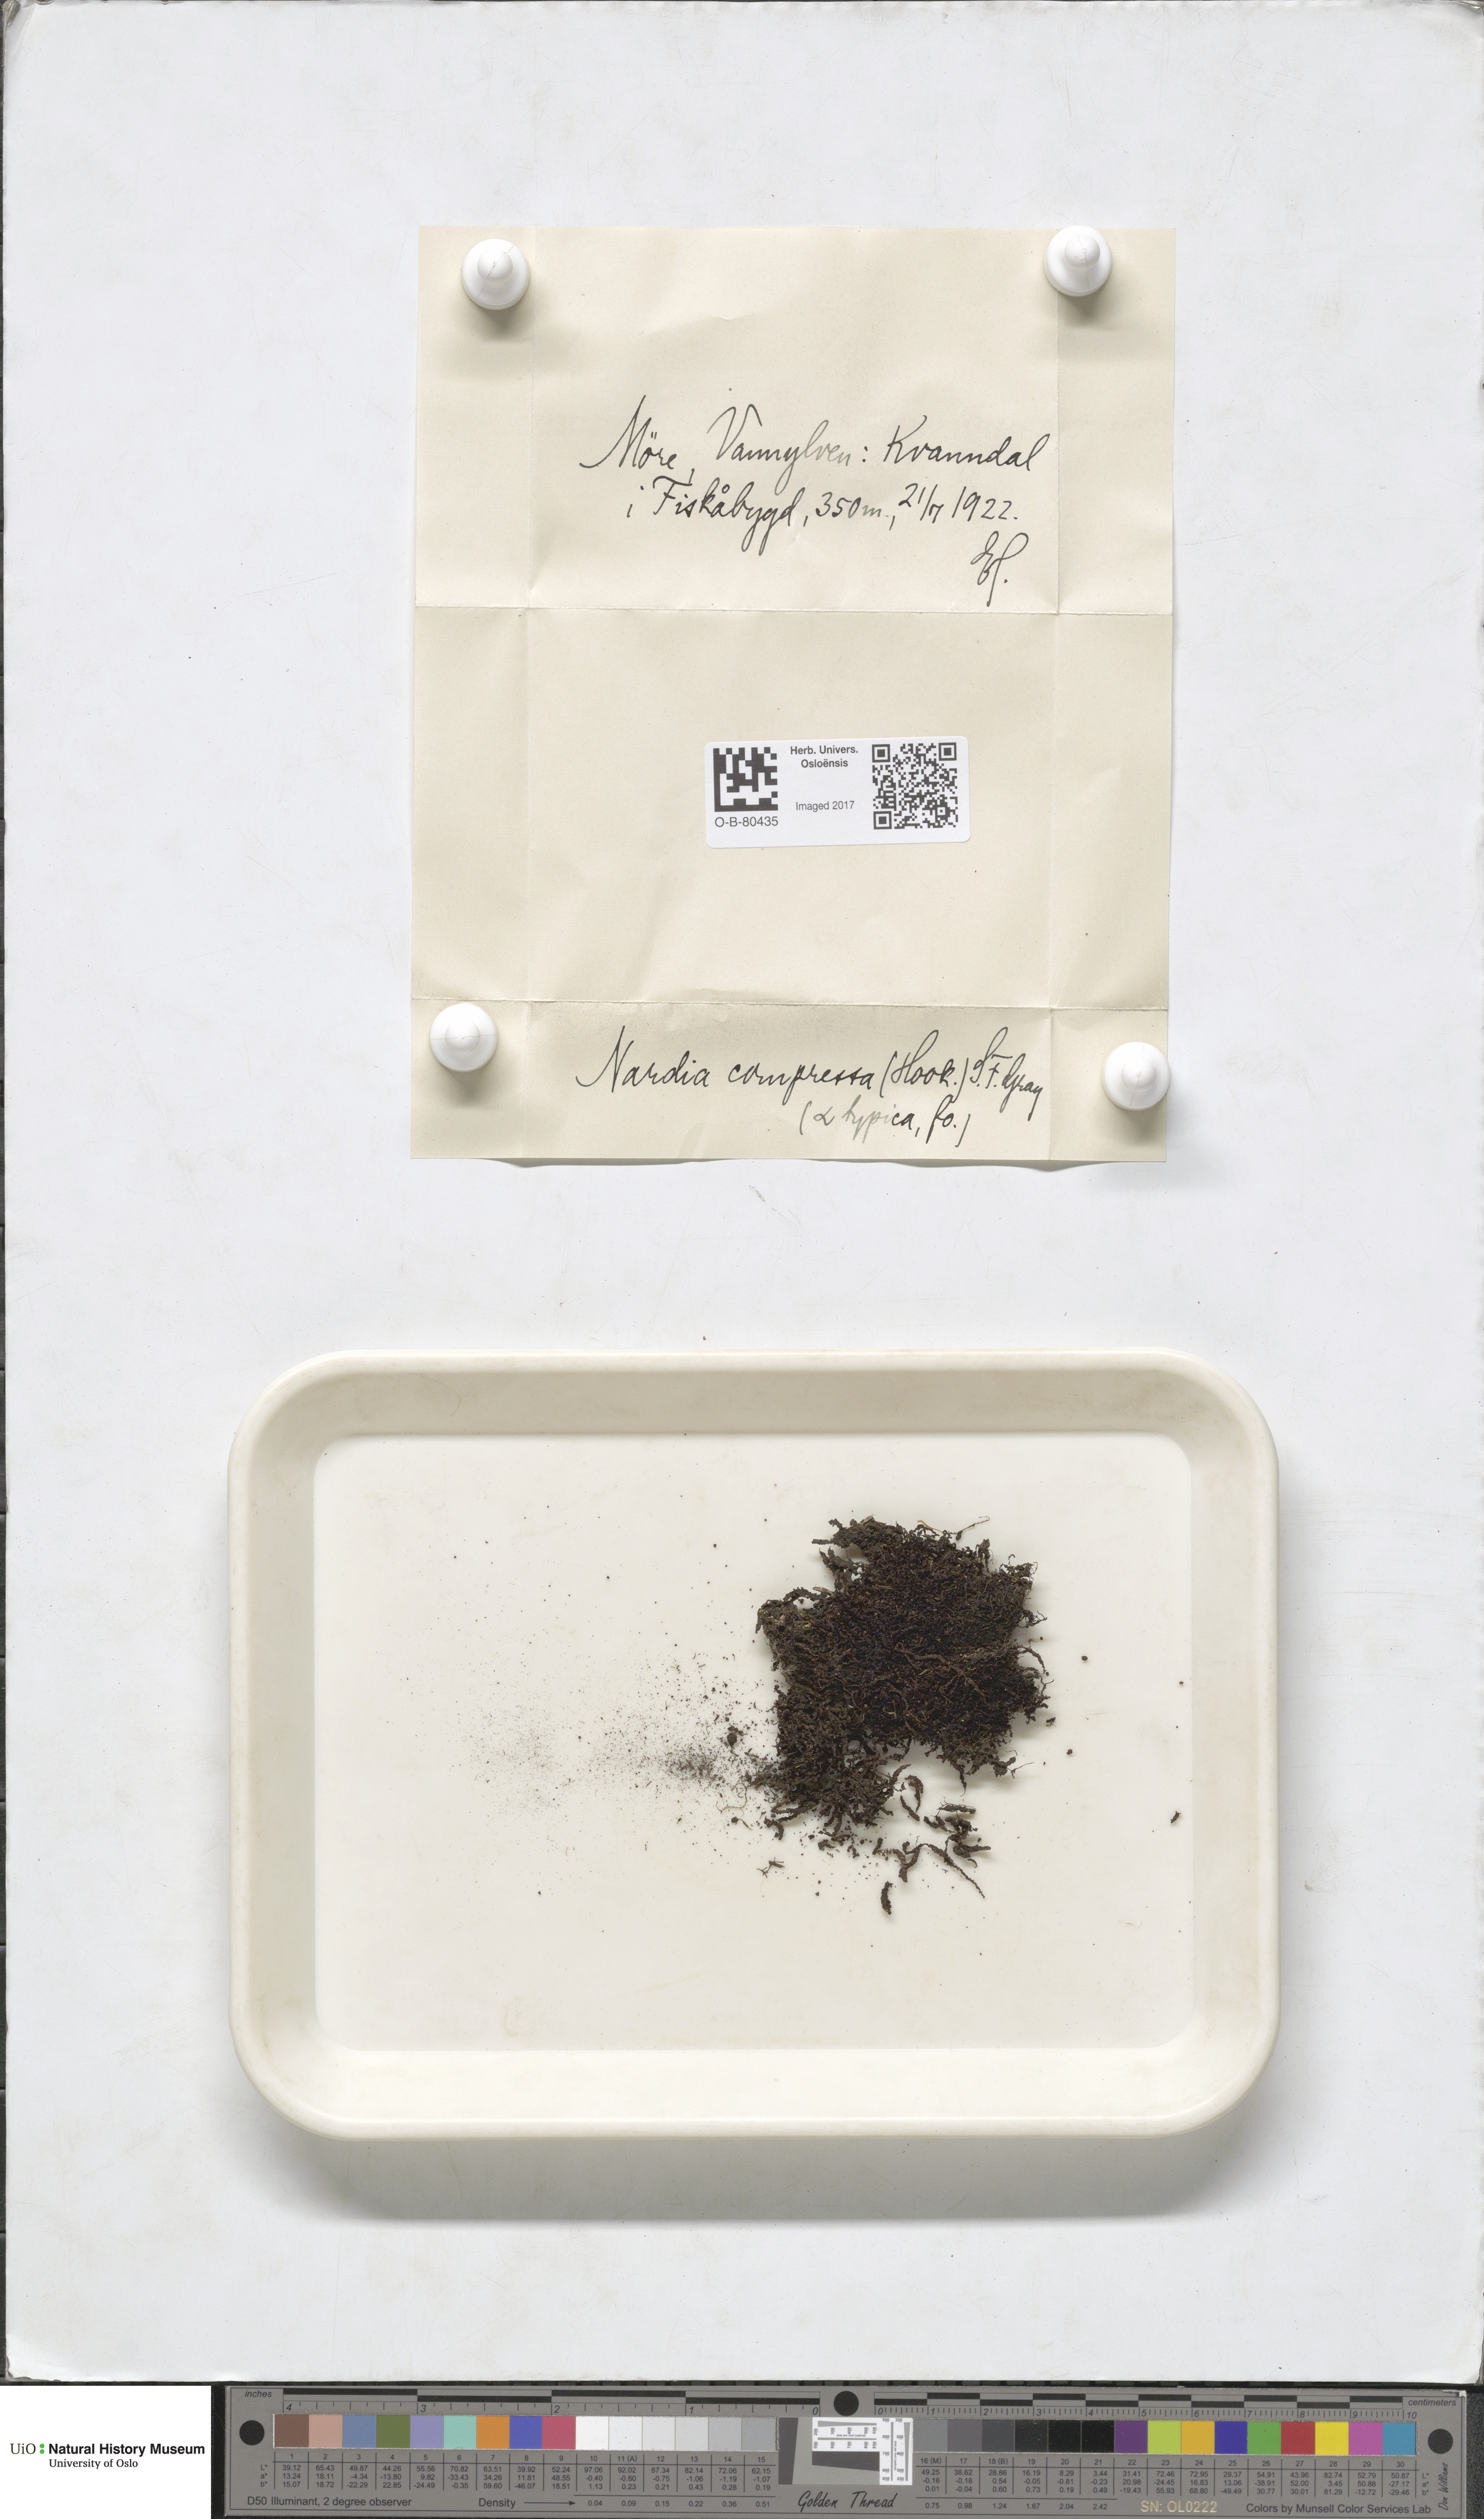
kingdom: Plantae
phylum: Marchantiophyta
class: Jungermanniopsida
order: Jungermanniales
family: Gymnomitriaceae
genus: Nardia
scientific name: Nardia compressa
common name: Compressed flapwort
